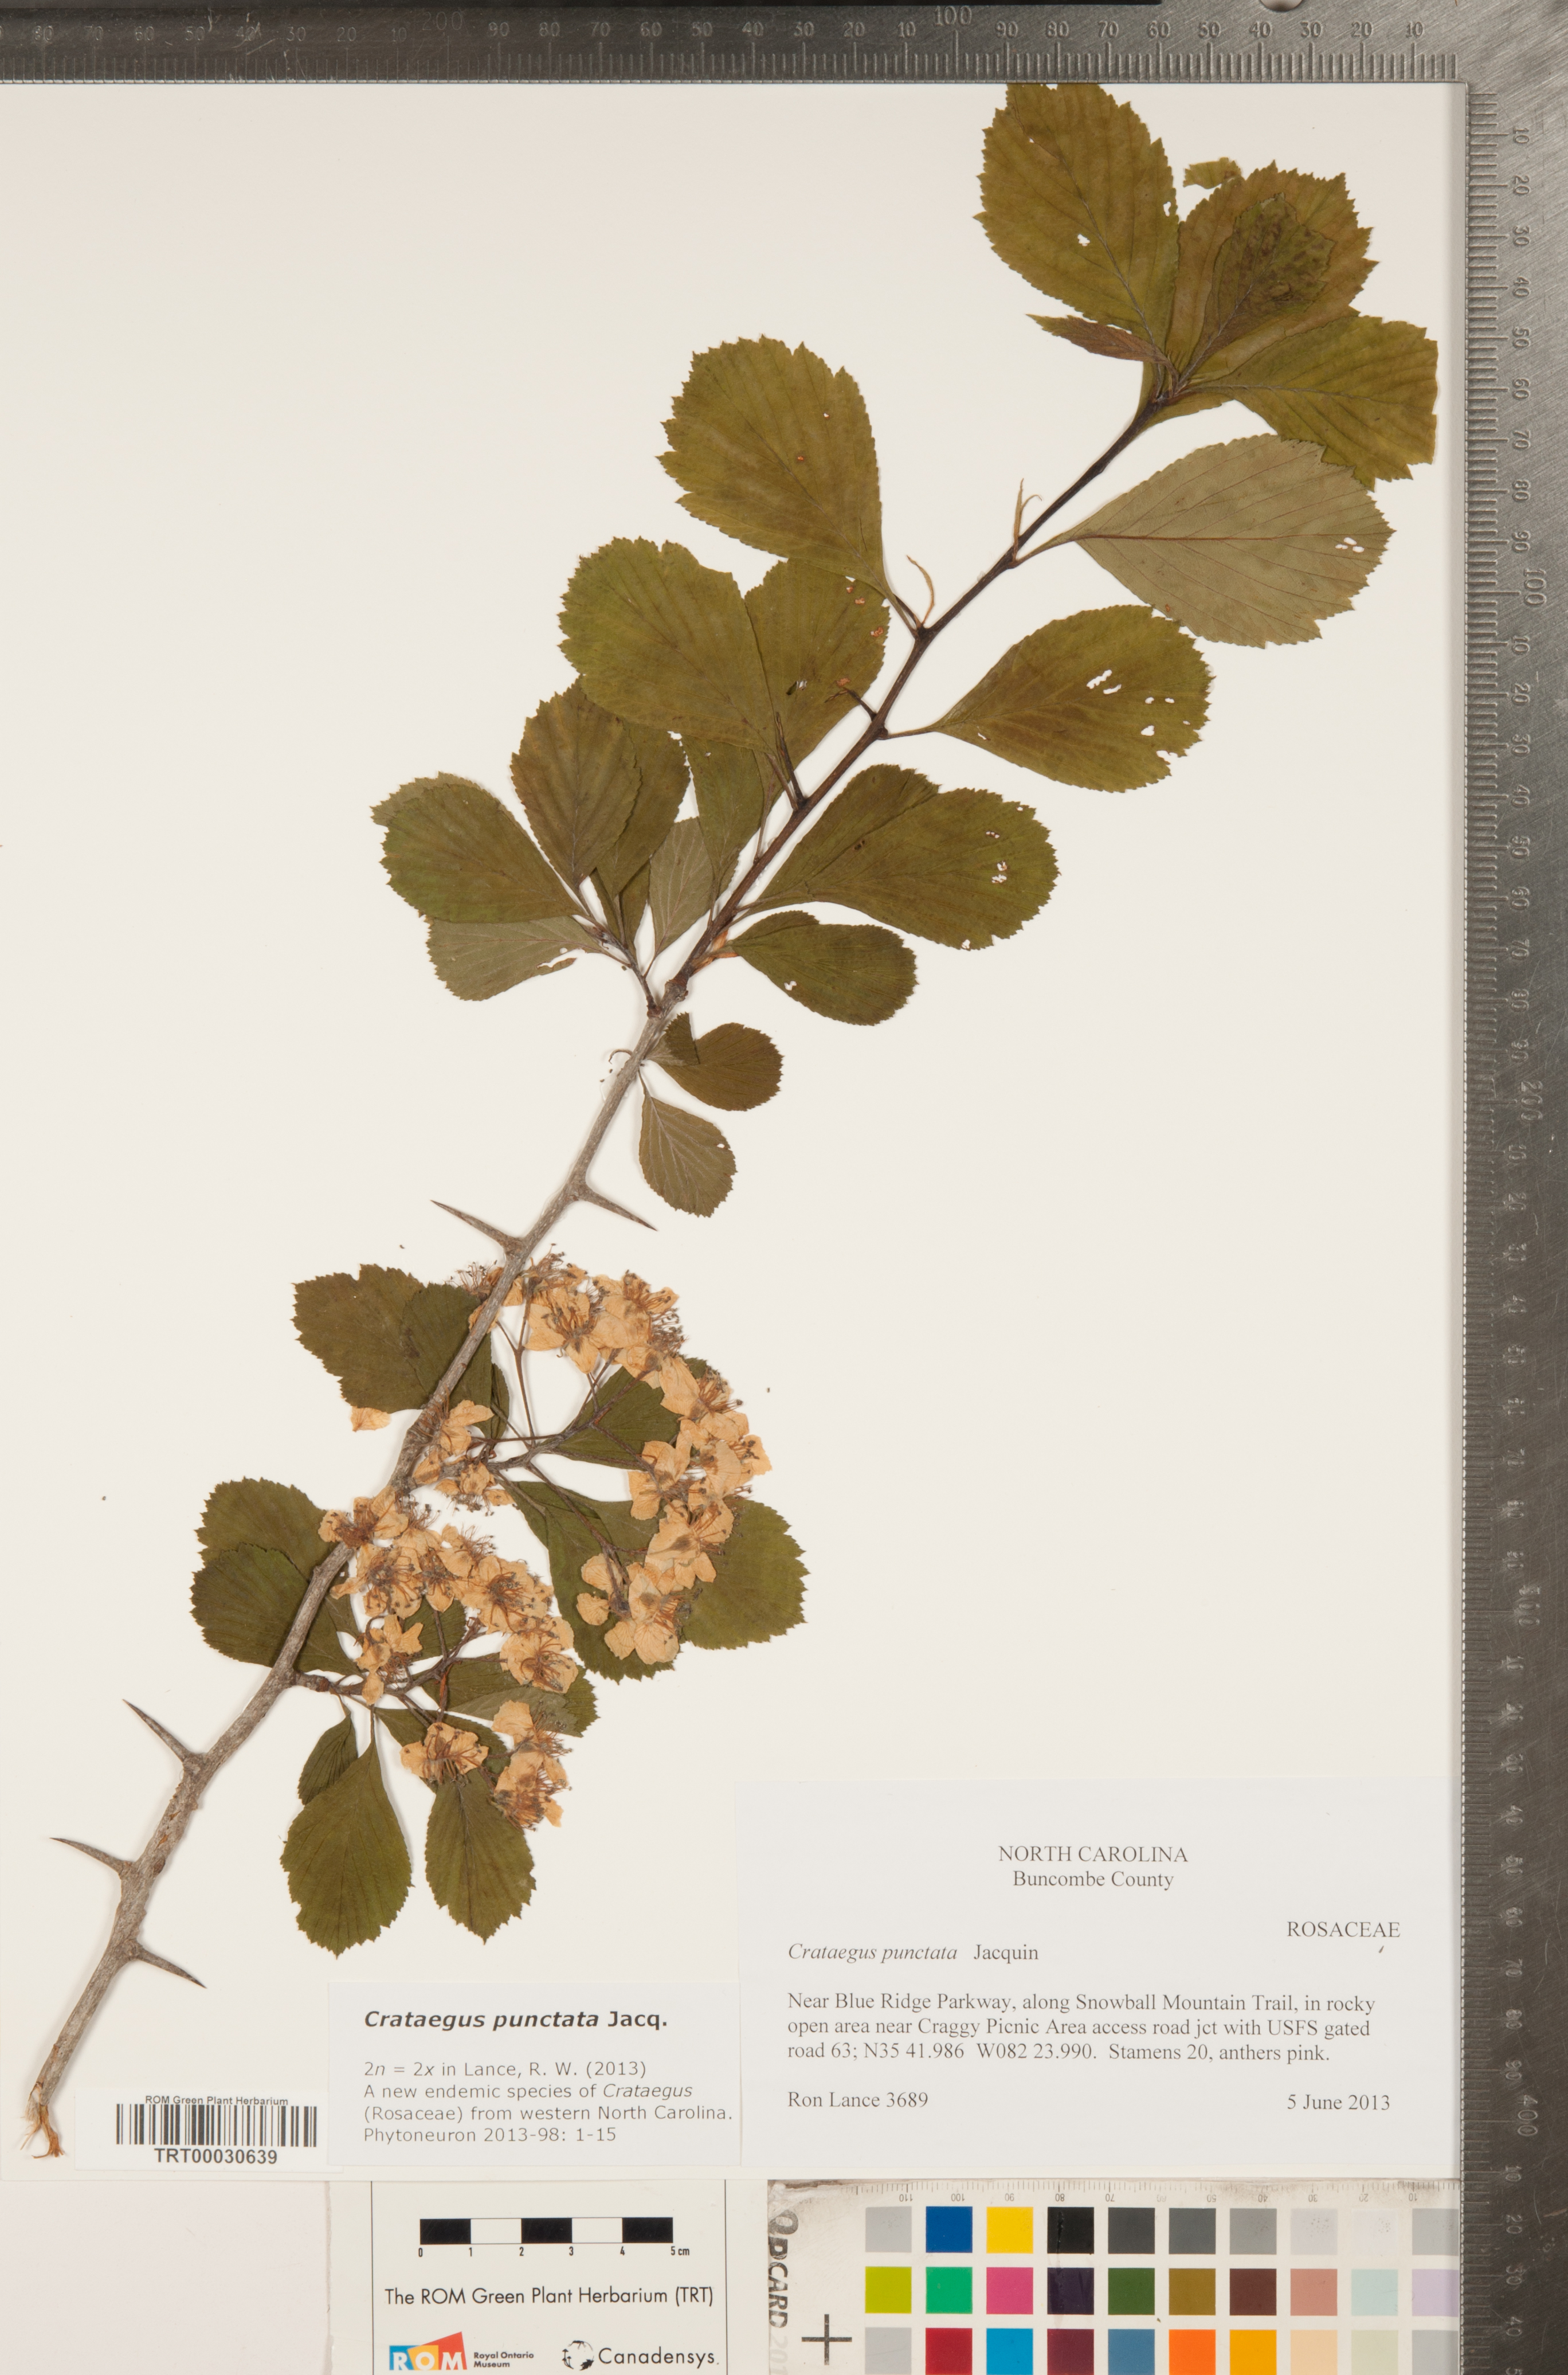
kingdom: Plantae
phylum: Tracheophyta
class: Magnoliopsida
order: Rosales
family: Rosaceae
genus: Crataegus
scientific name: Crataegus punctata
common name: Dotted hawthorn
